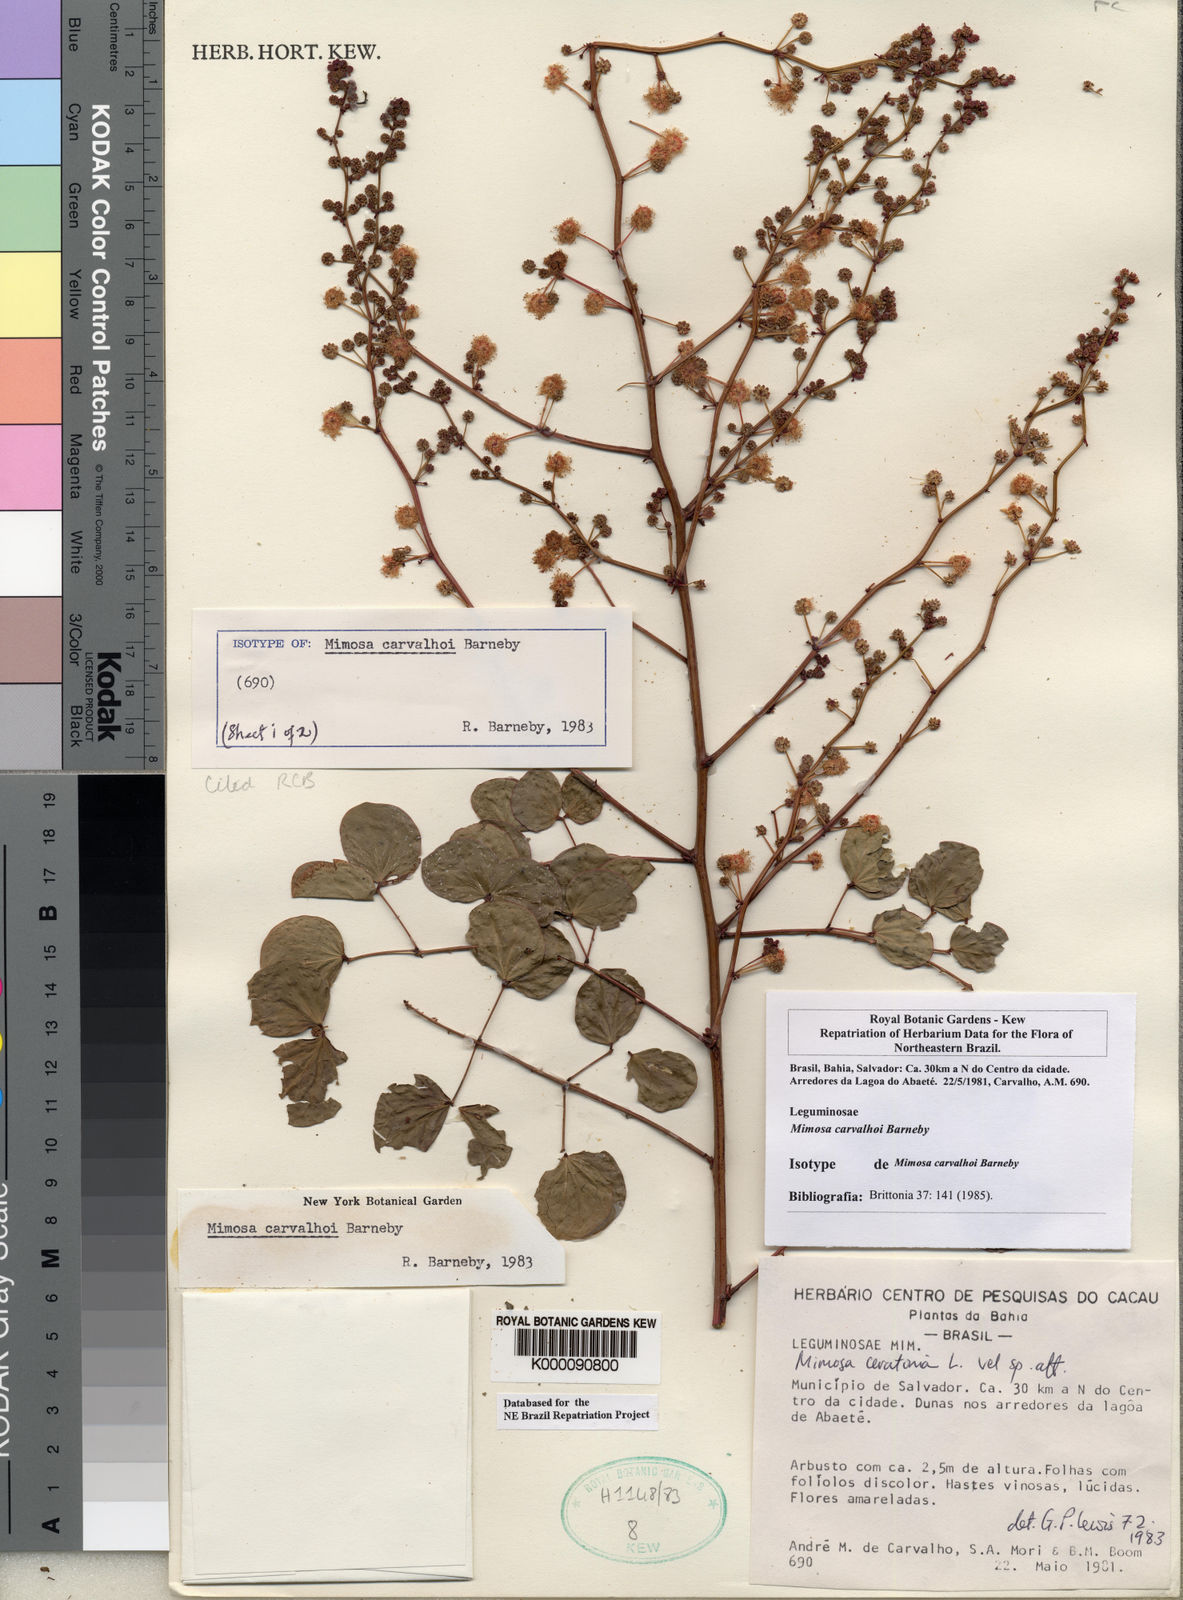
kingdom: Plantae
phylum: Tracheophyta
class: Magnoliopsida
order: Fabales
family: Fabaceae
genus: Mimosa
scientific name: Mimosa carvalhoi
